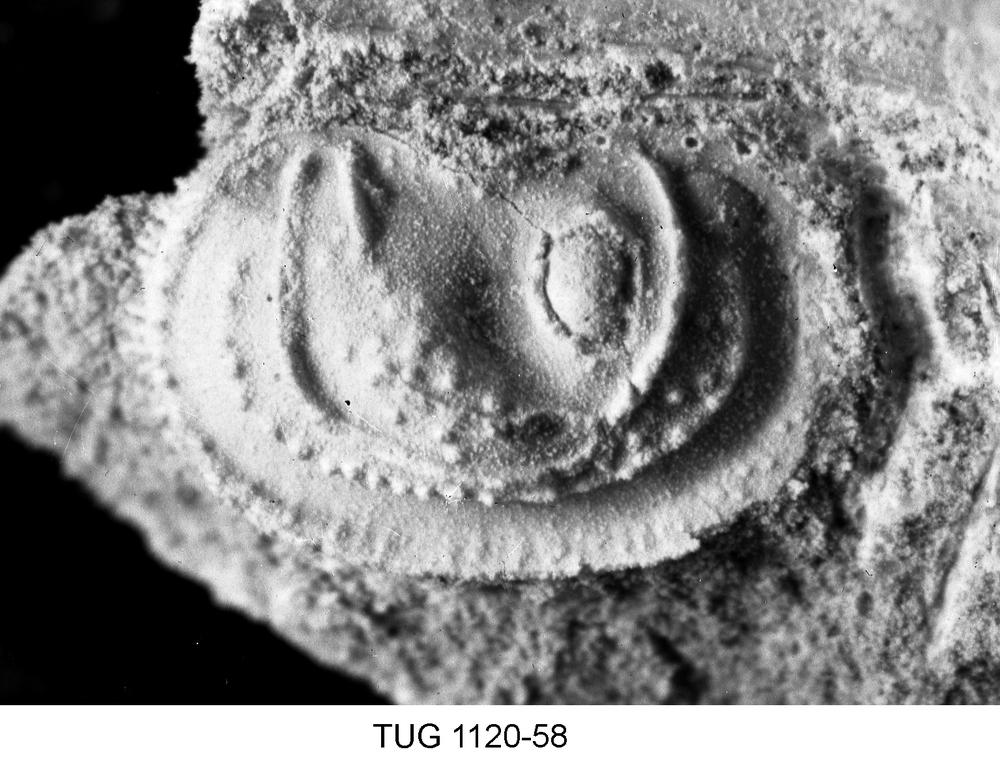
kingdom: Animalia
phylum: Arthropoda
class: Ostracoda
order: Palaeocopida
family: Ctenonotellidae
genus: Steusloffia
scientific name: Steusloffia
